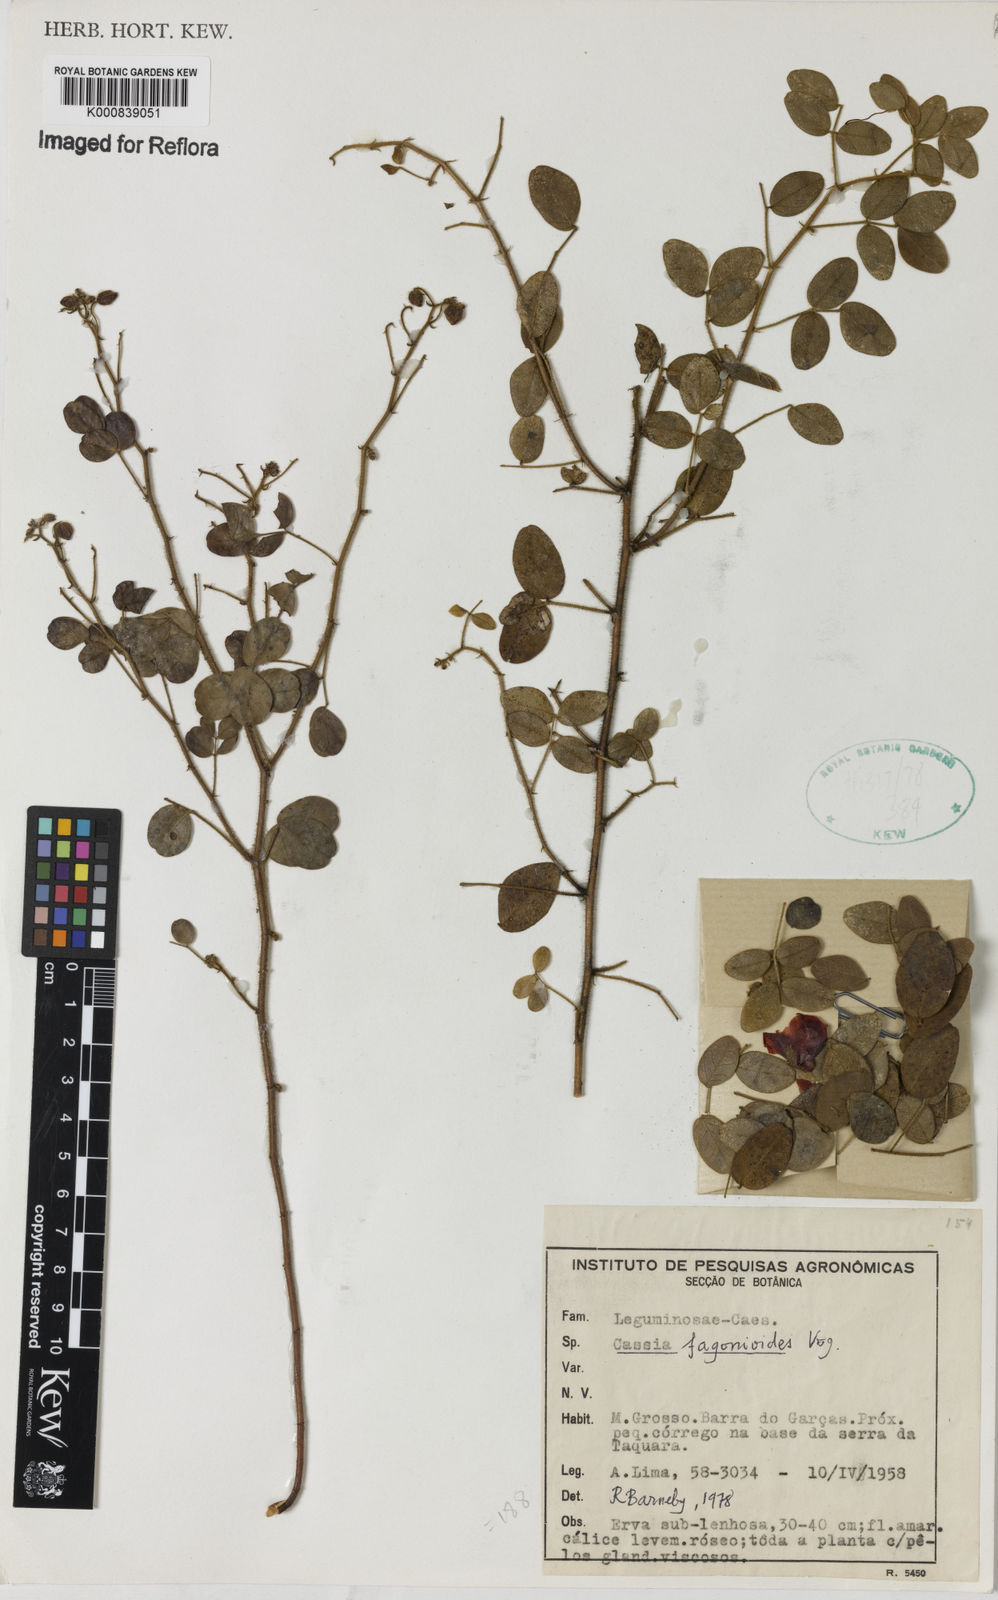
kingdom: Plantae
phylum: Tracheophyta
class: Magnoliopsida
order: Fabales
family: Fabaceae
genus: Chamaecrista
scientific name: Chamaecrista hispidula
